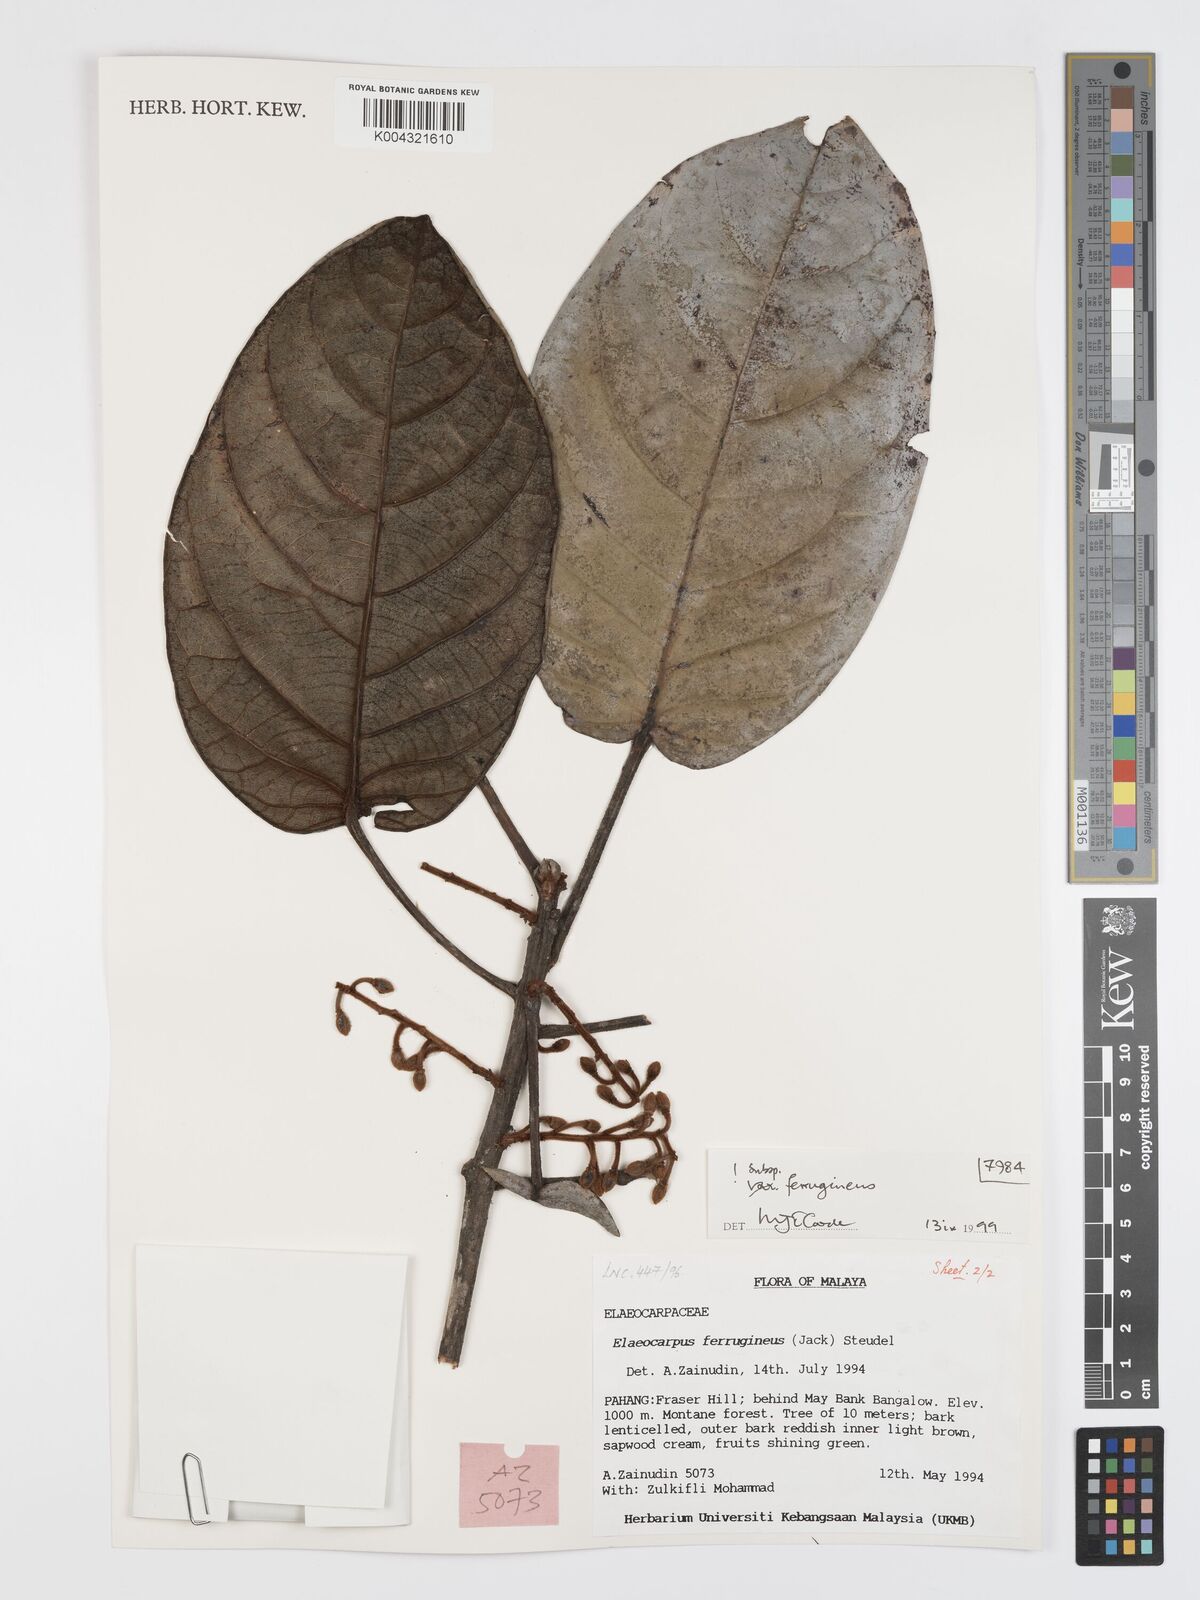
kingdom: Plantae
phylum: Tracheophyta
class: Magnoliopsida
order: Oxalidales
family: Elaeocarpaceae
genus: Elaeocarpus
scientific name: Elaeocarpus ferrugineus
